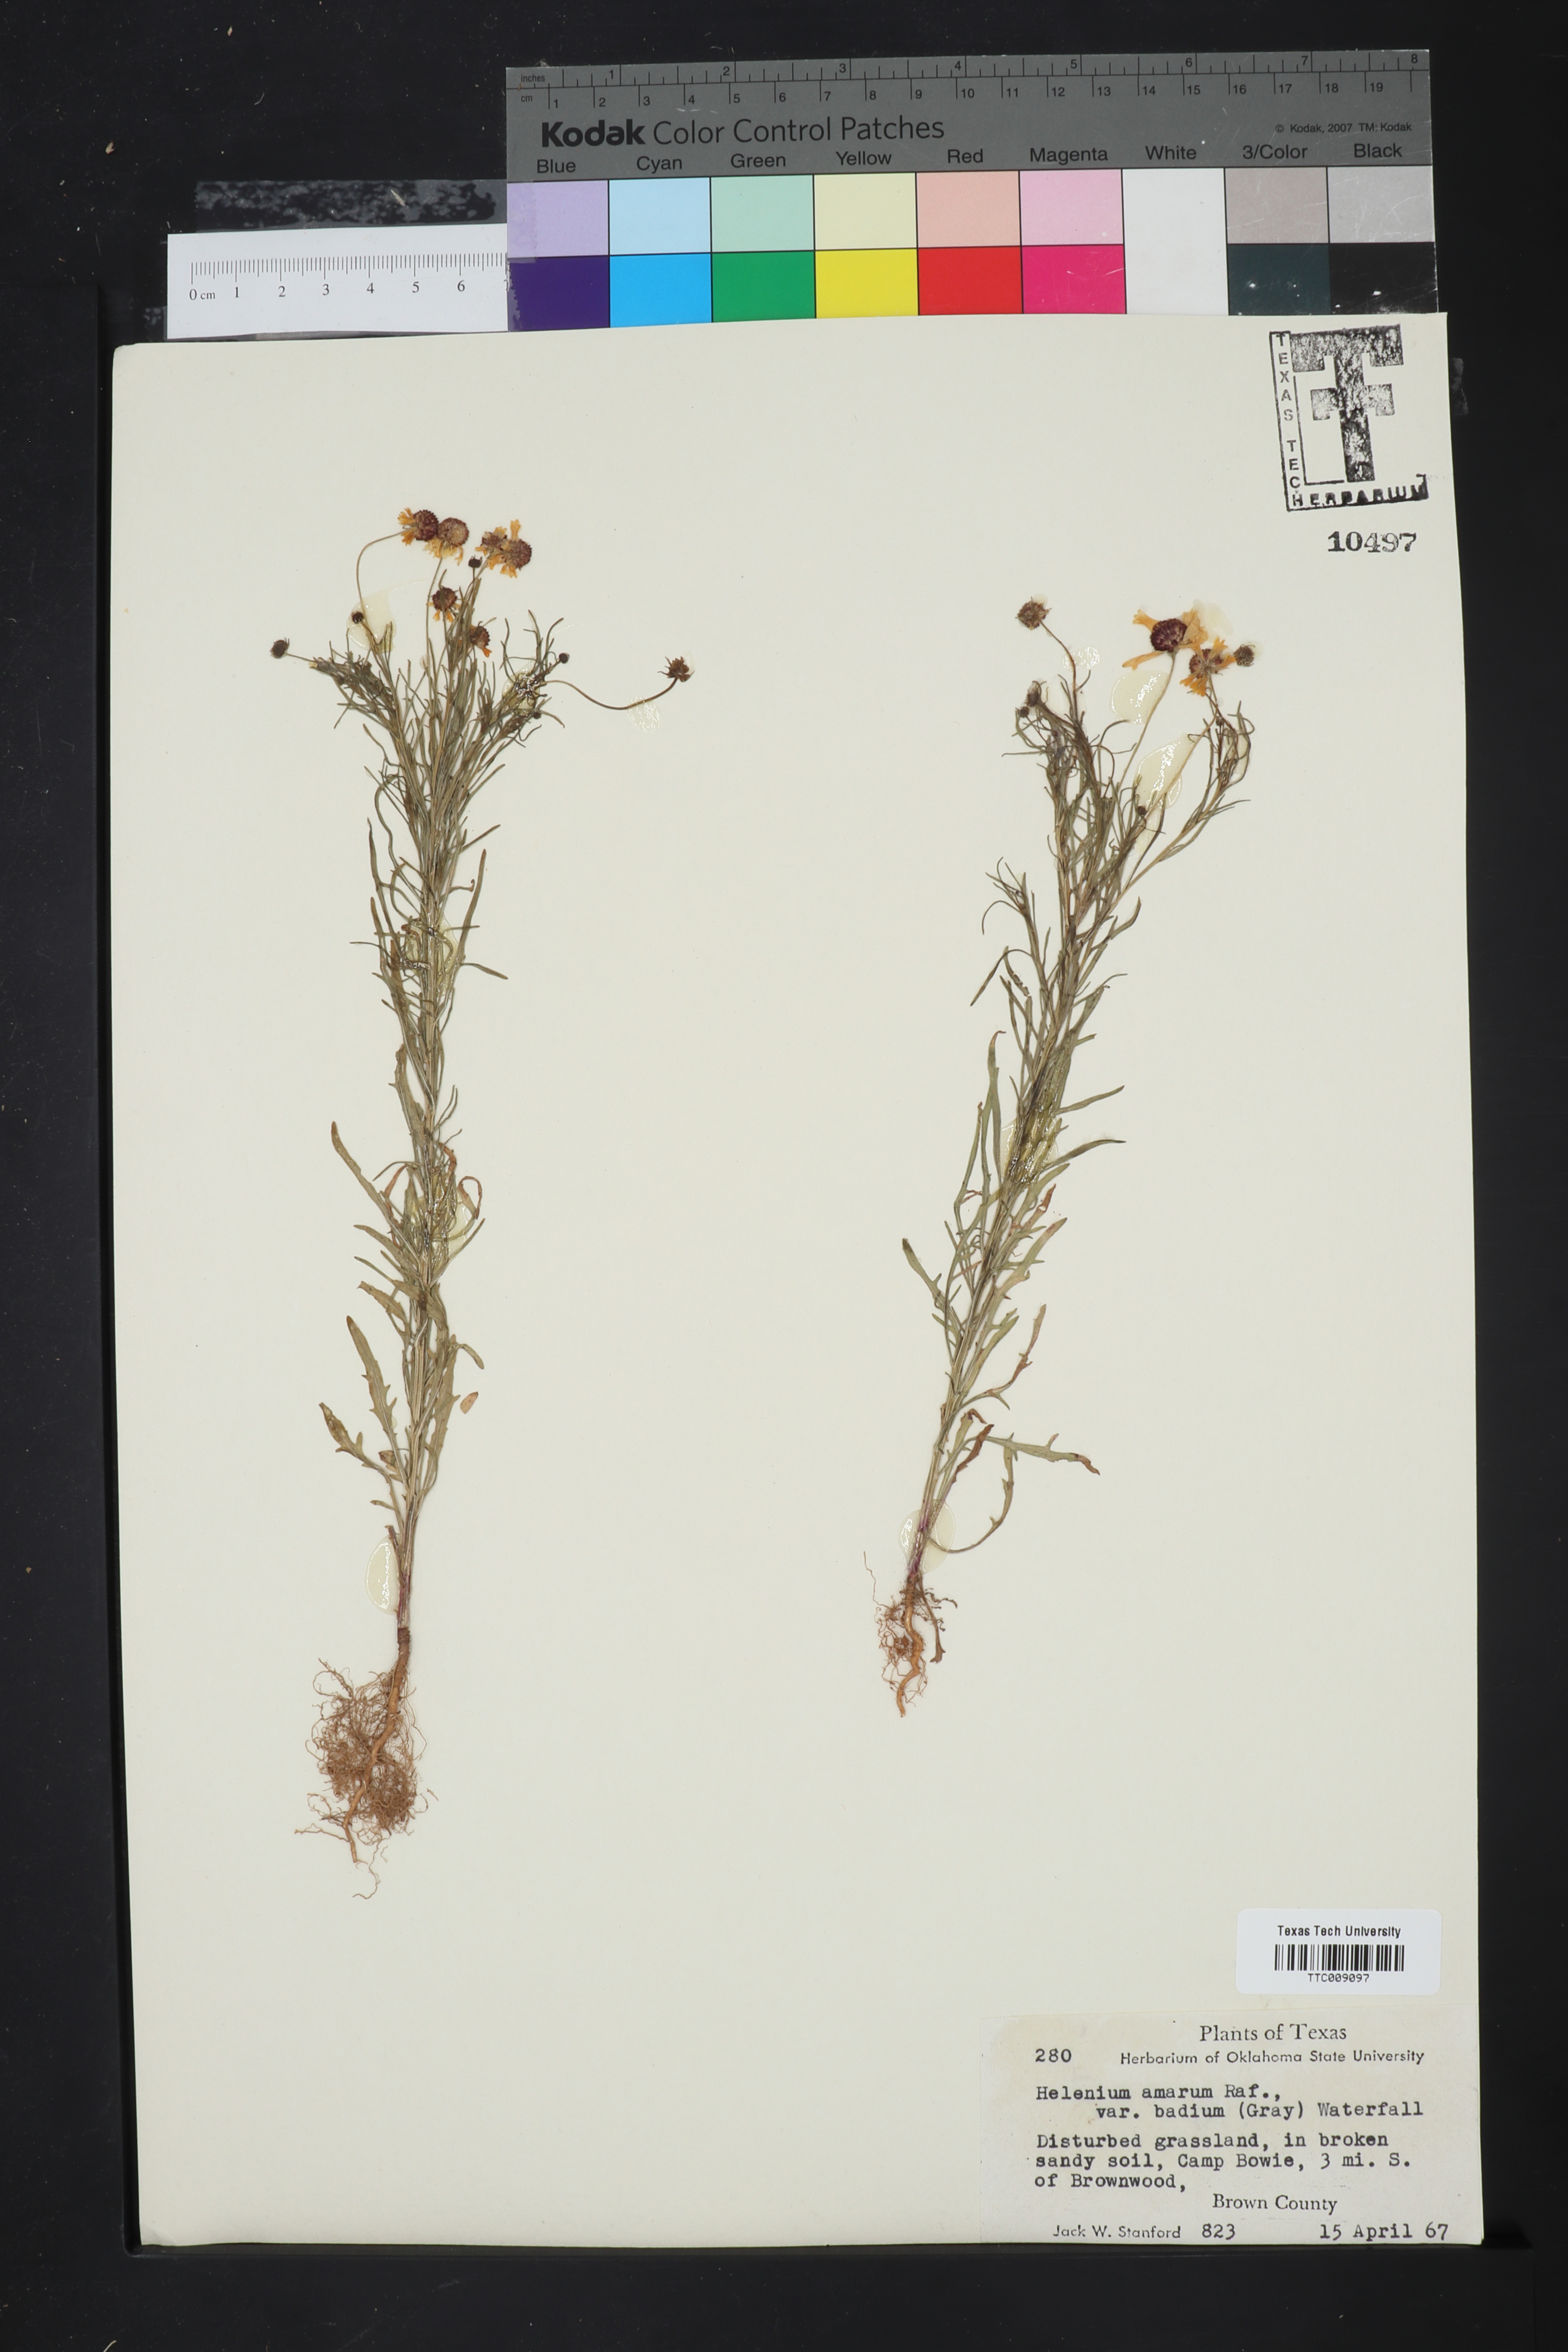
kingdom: Plantae
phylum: Tracheophyta
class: Magnoliopsida
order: Asterales
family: Asteraceae
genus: Helenium
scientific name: Helenium amarum
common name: Bitter sneezeweed
